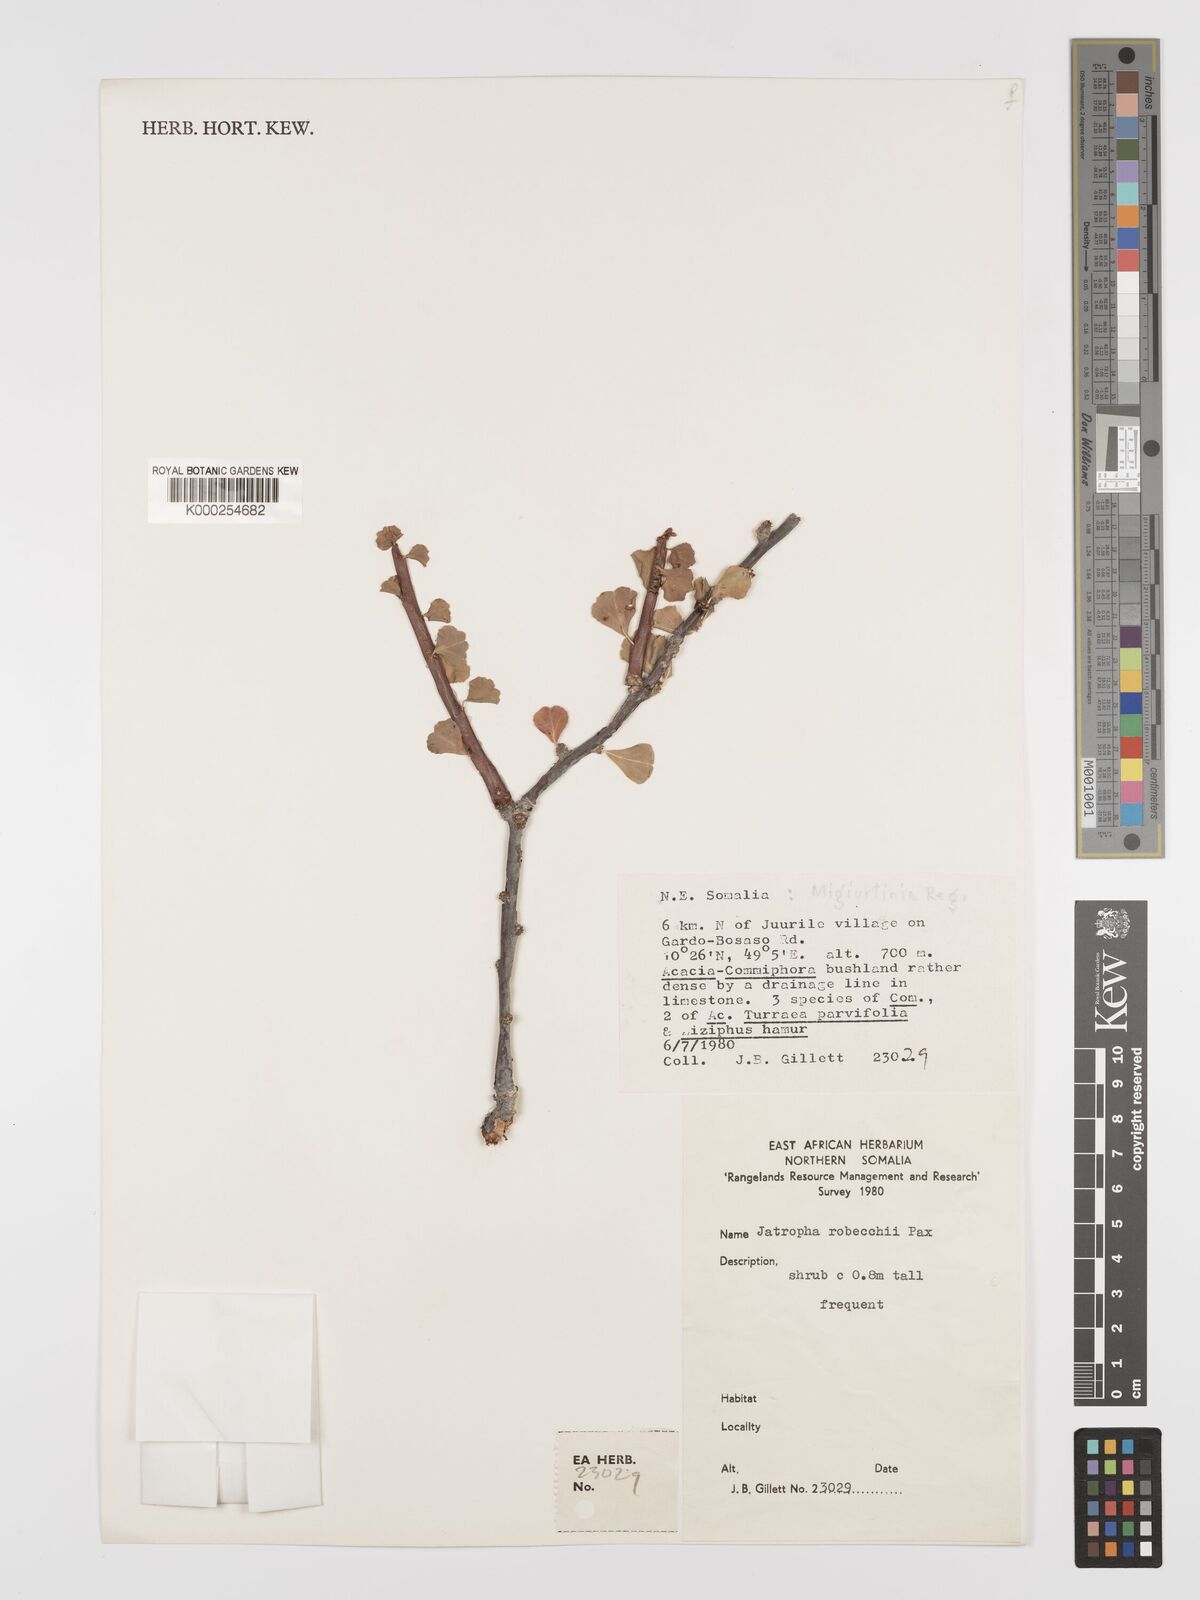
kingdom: Plantae
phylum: Tracheophyta
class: Magnoliopsida
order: Malpighiales
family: Euphorbiaceae
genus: Jatropha
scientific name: Jatropha robecchii
